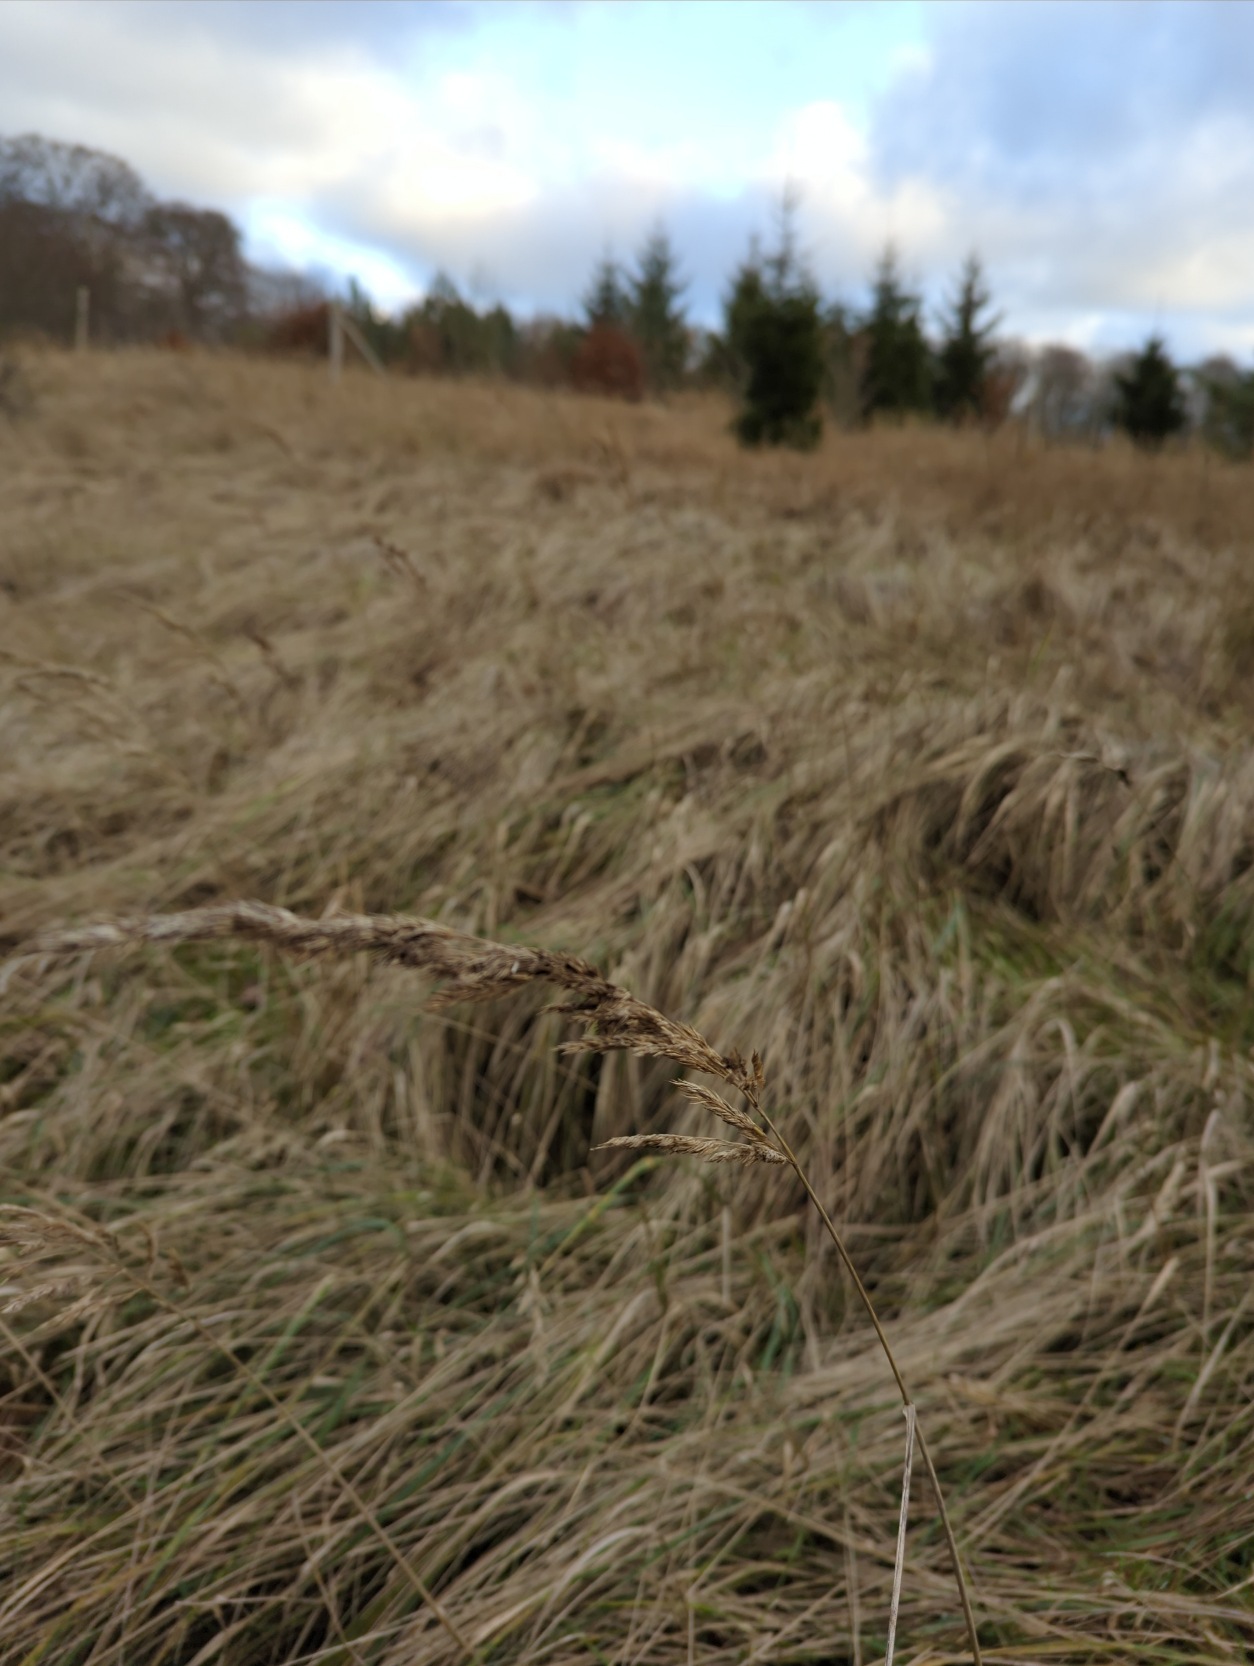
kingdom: Plantae
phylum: Tracheophyta
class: Liliopsida
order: Poales
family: Poaceae
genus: Calamagrostis
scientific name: Calamagrostis epigejos
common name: Bjerg-rørhvene
